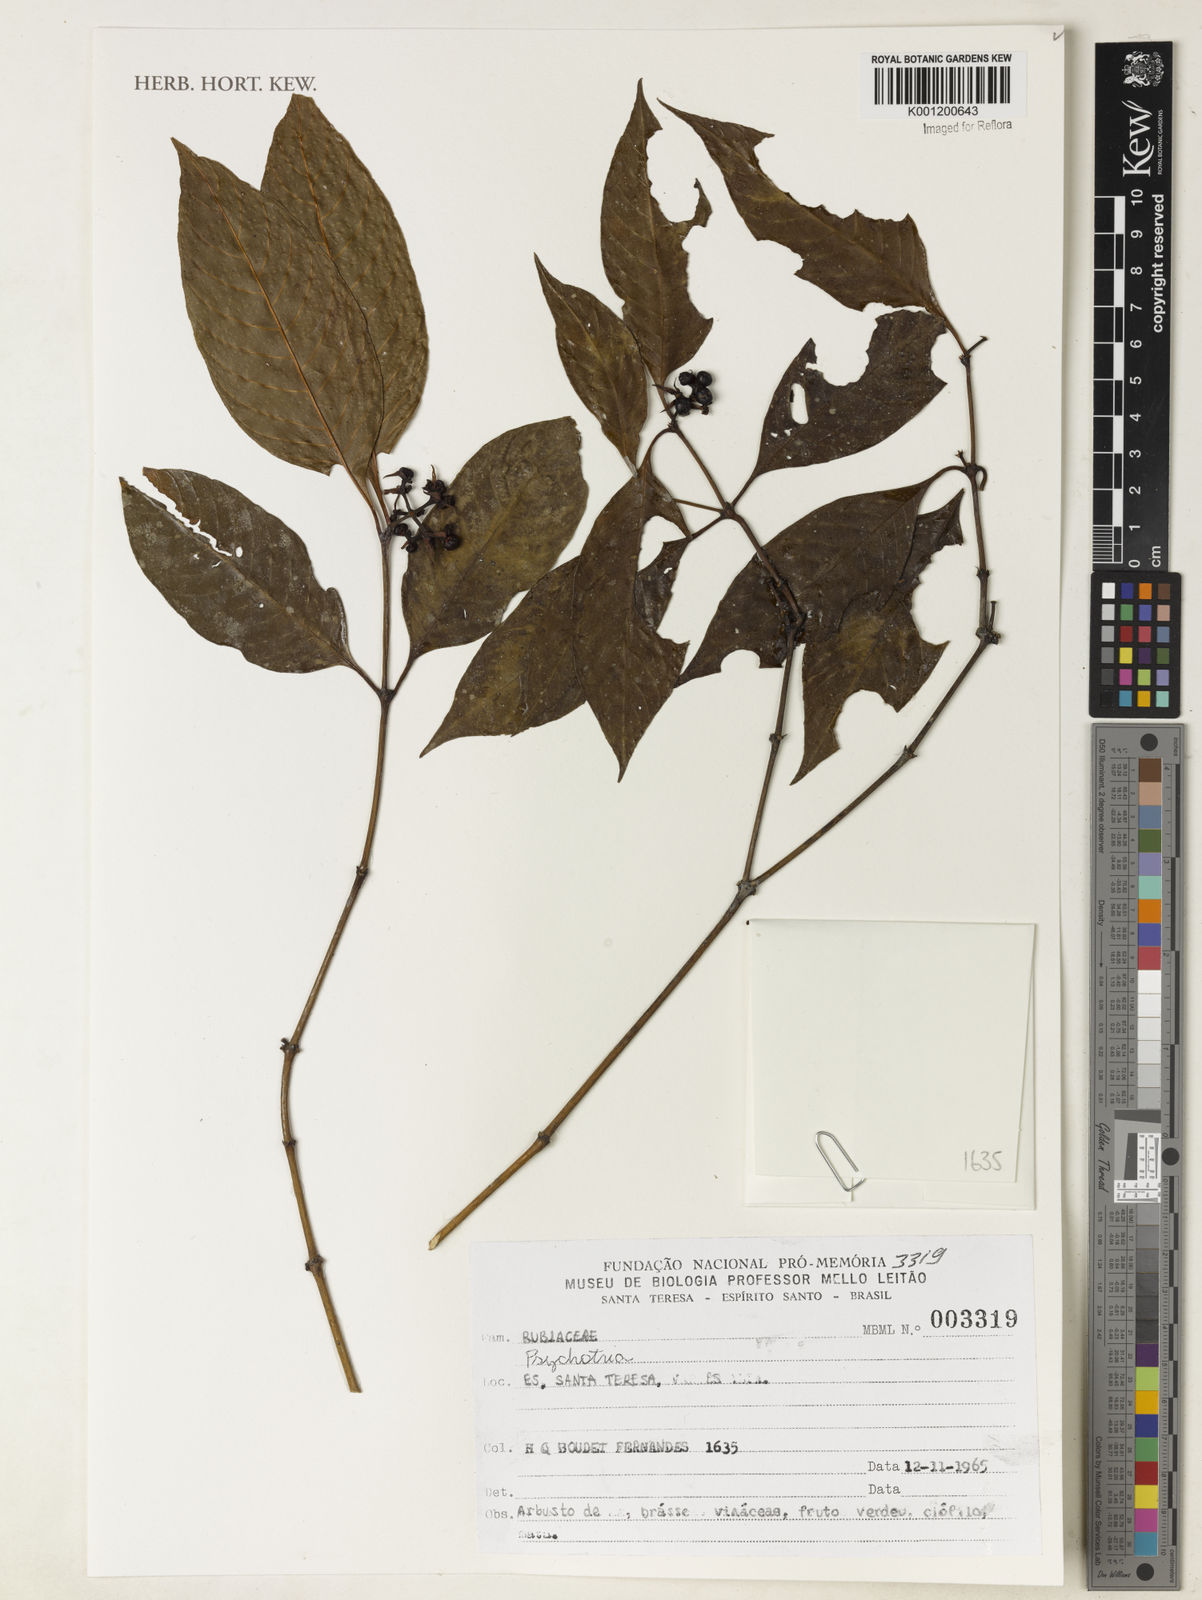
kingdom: Plantae
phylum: Tracheophyta
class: Magnoliopsida
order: Gentianales
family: Rubiaceae
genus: Psychotria
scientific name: Psychotria
